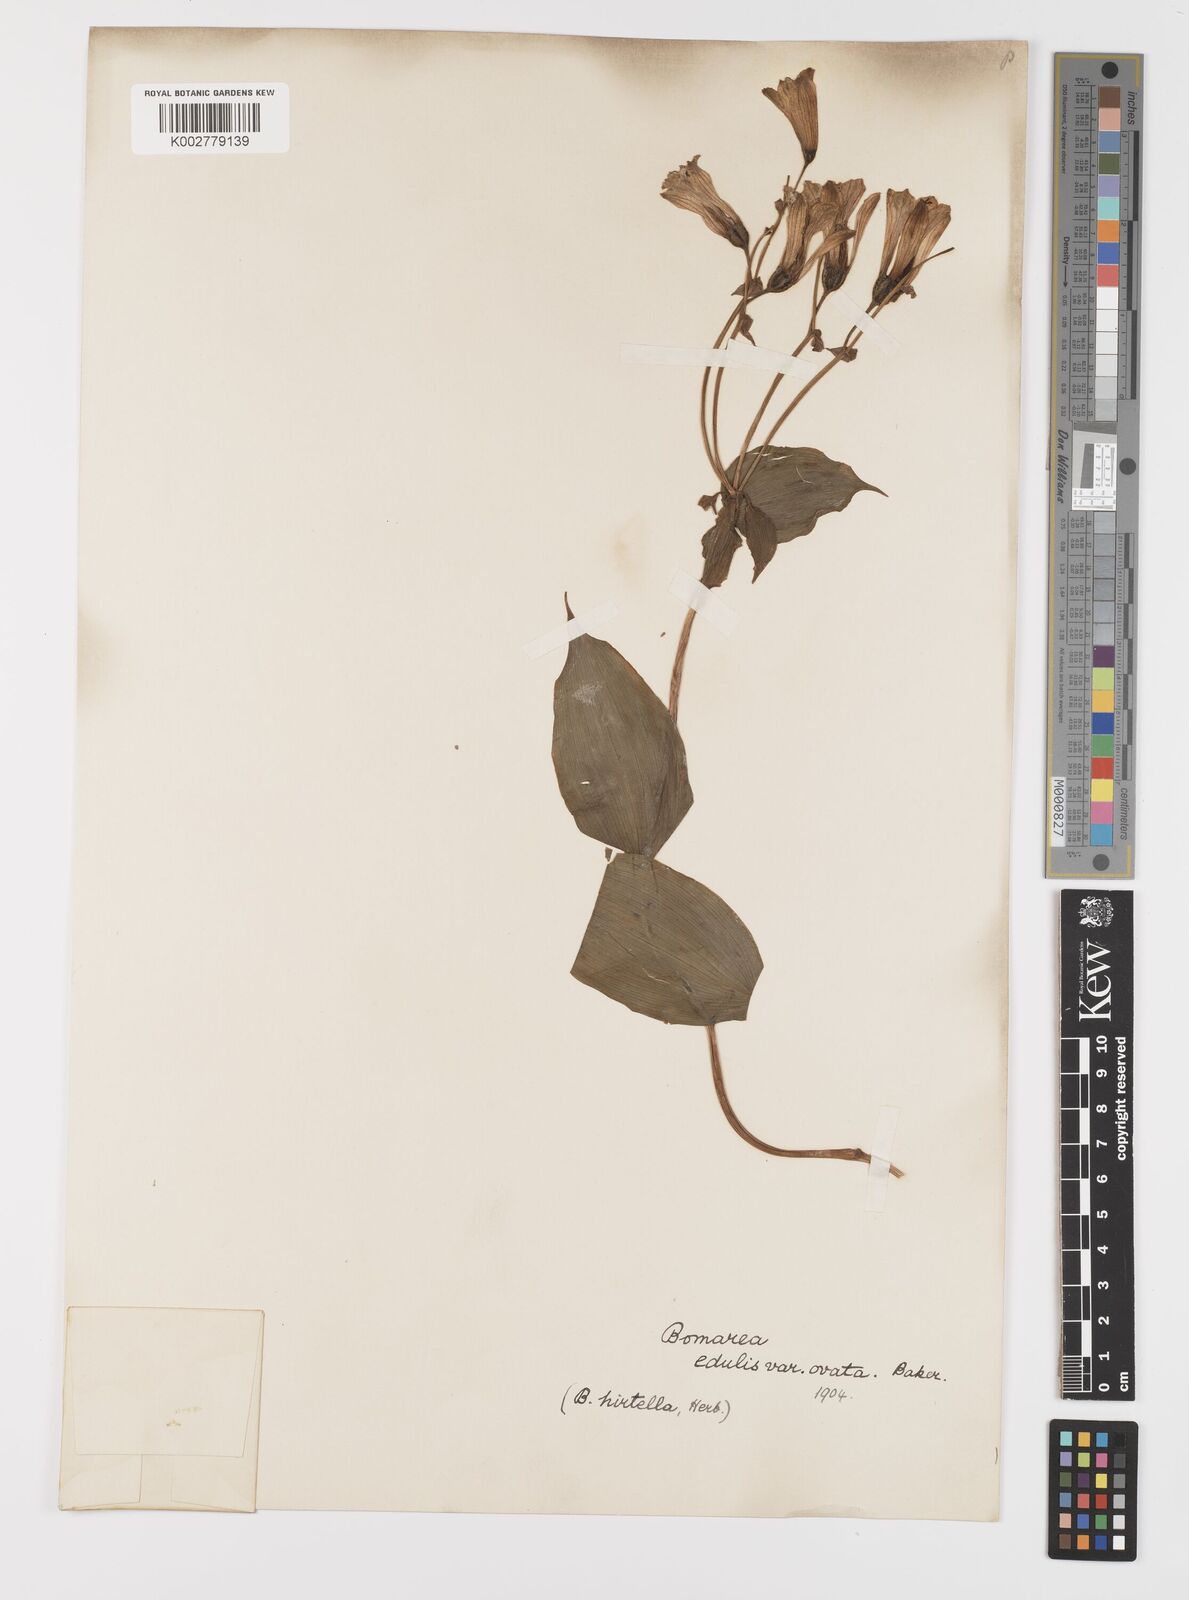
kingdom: Plantae
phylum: Tracheophyta
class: Liliopsida
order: Liliales
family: Alstroemeriaceae
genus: Bomarea
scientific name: Bomarea edulis
